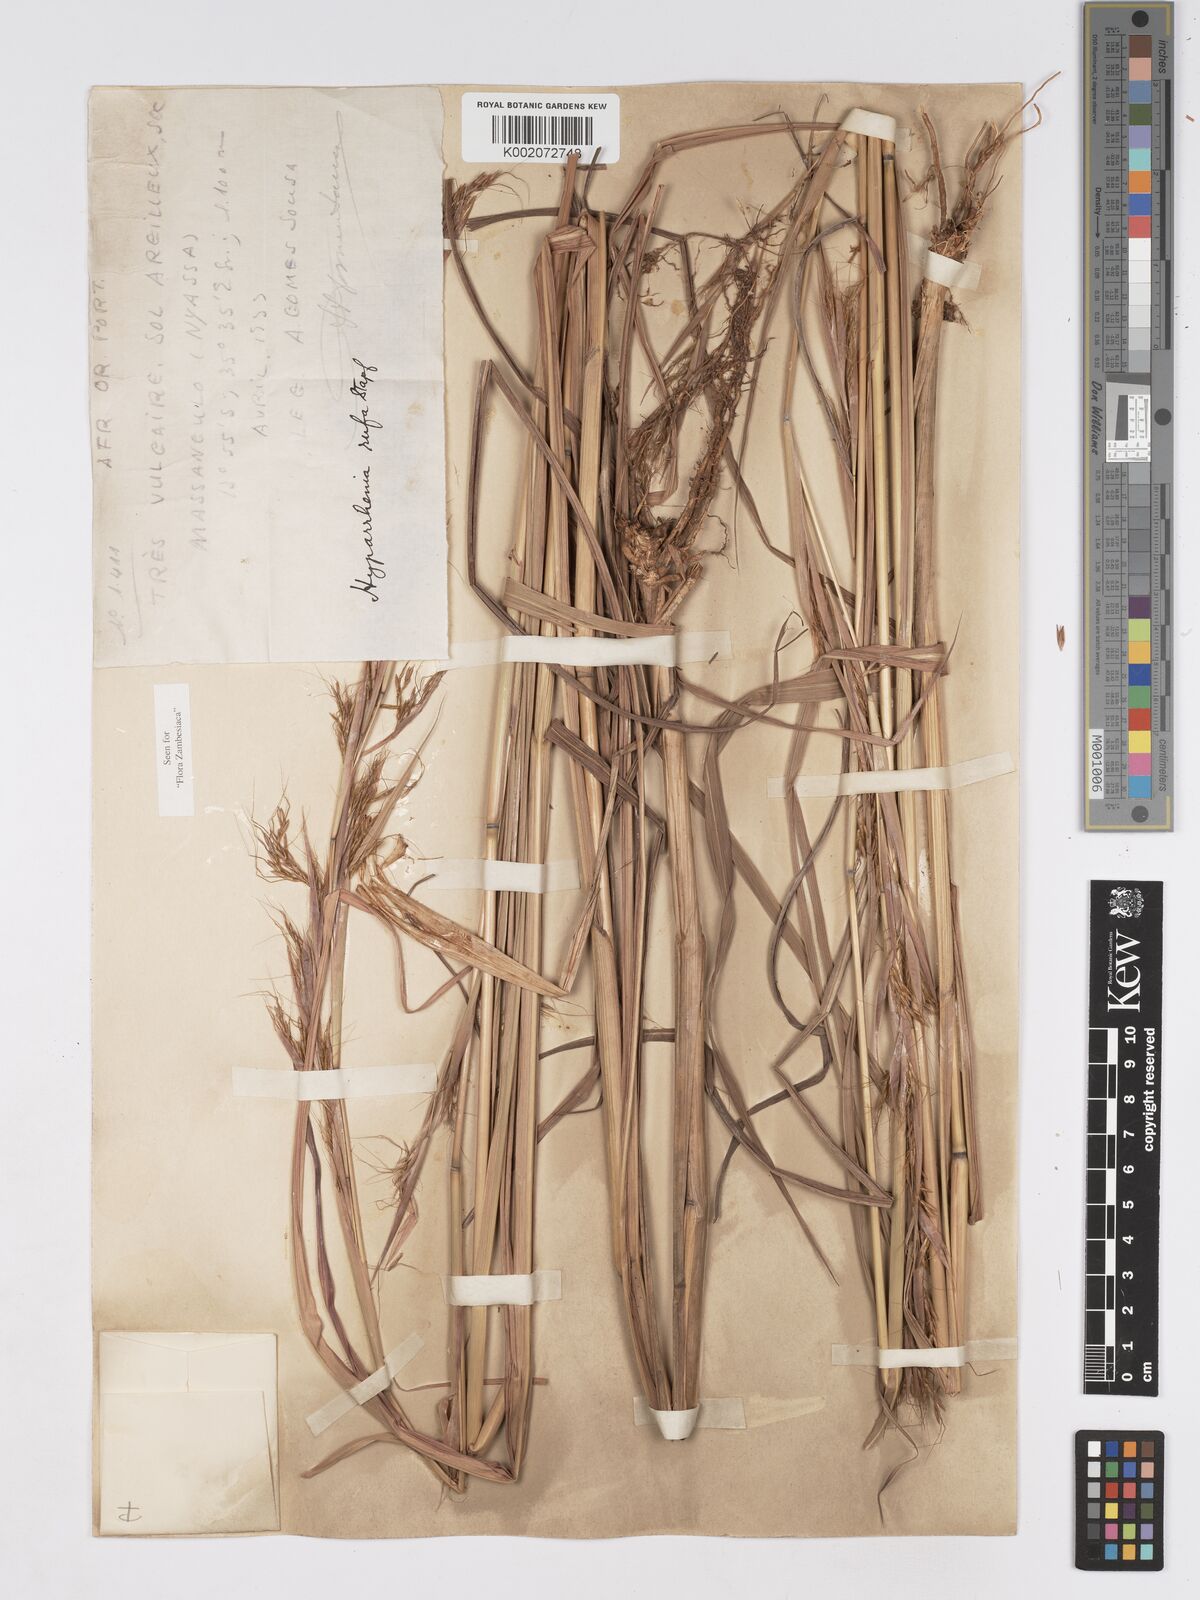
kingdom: Plantae
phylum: Tracheophyta
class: Liliopsida
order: Poales
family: Poaceae
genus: Hyparrhenia
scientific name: Hyparrhenia rufa
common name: Jaraguagrass
